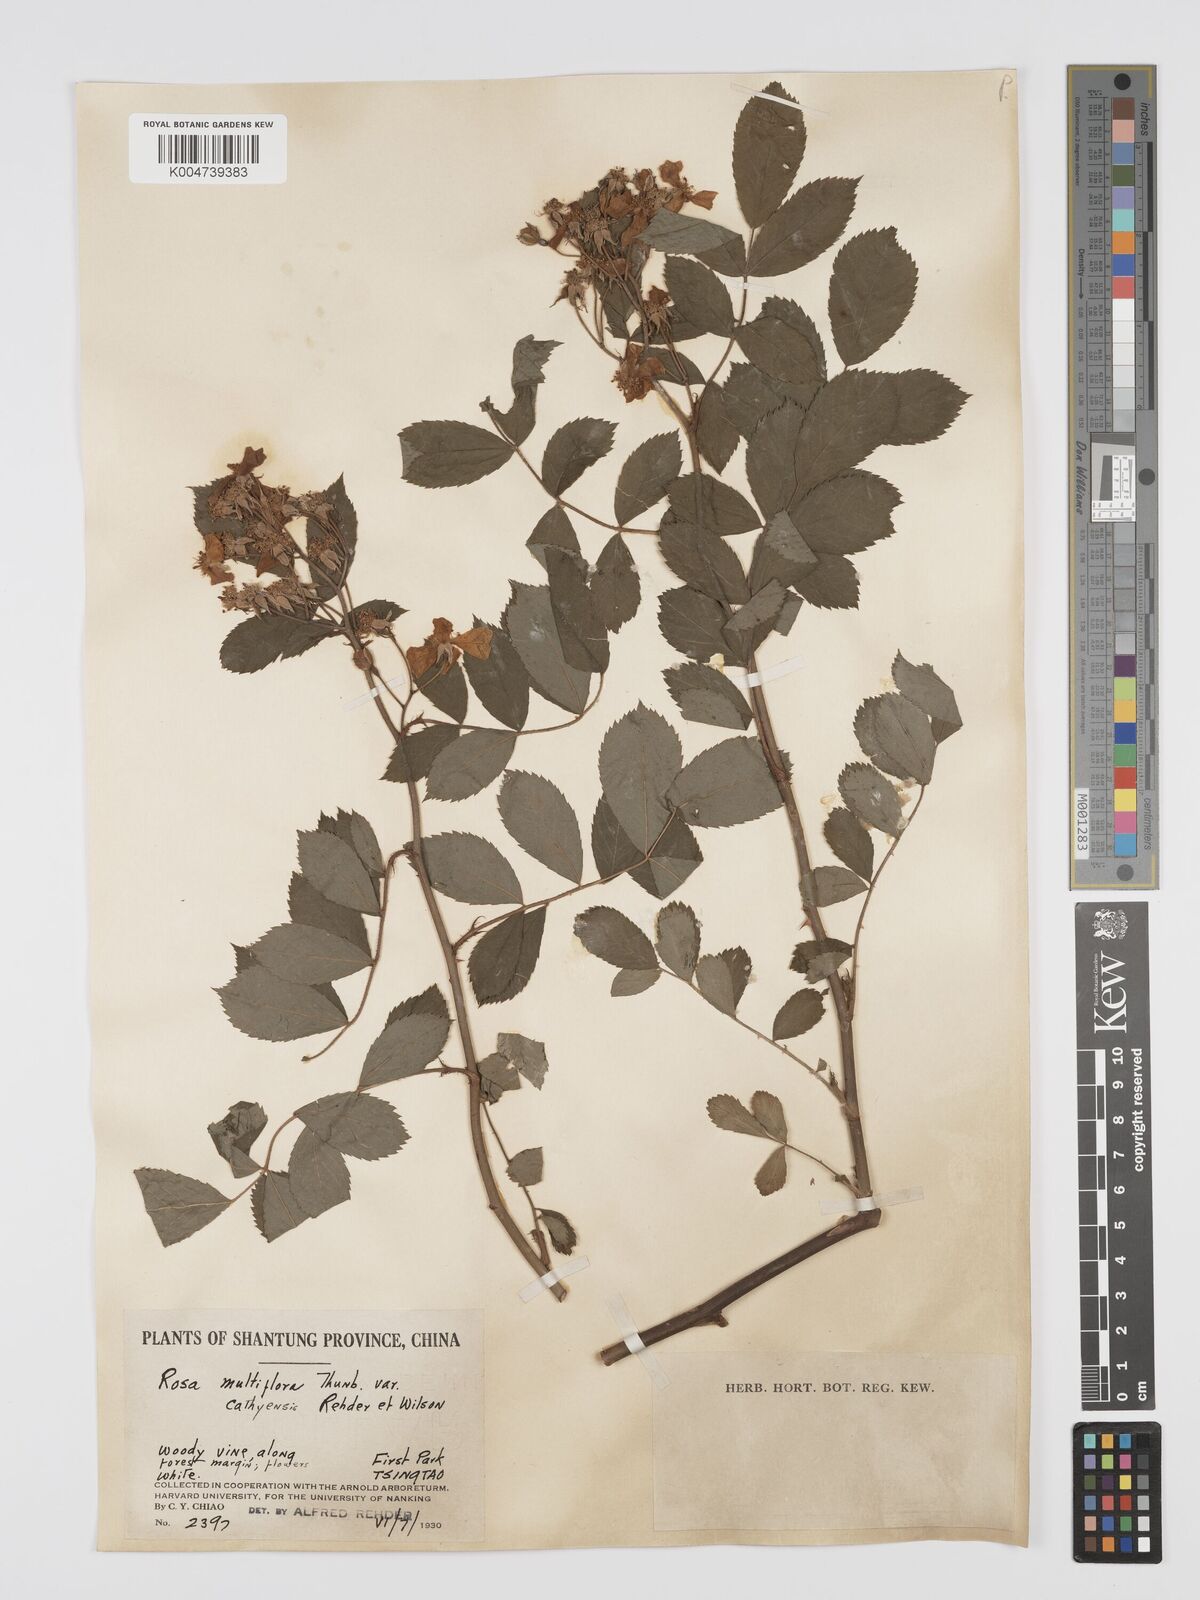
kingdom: Plantae
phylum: Tracheophyta
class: Magnoliopsida
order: Rosales
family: Rosaceae
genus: Rosa
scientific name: Rosa multiflora
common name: Multiflora rose
